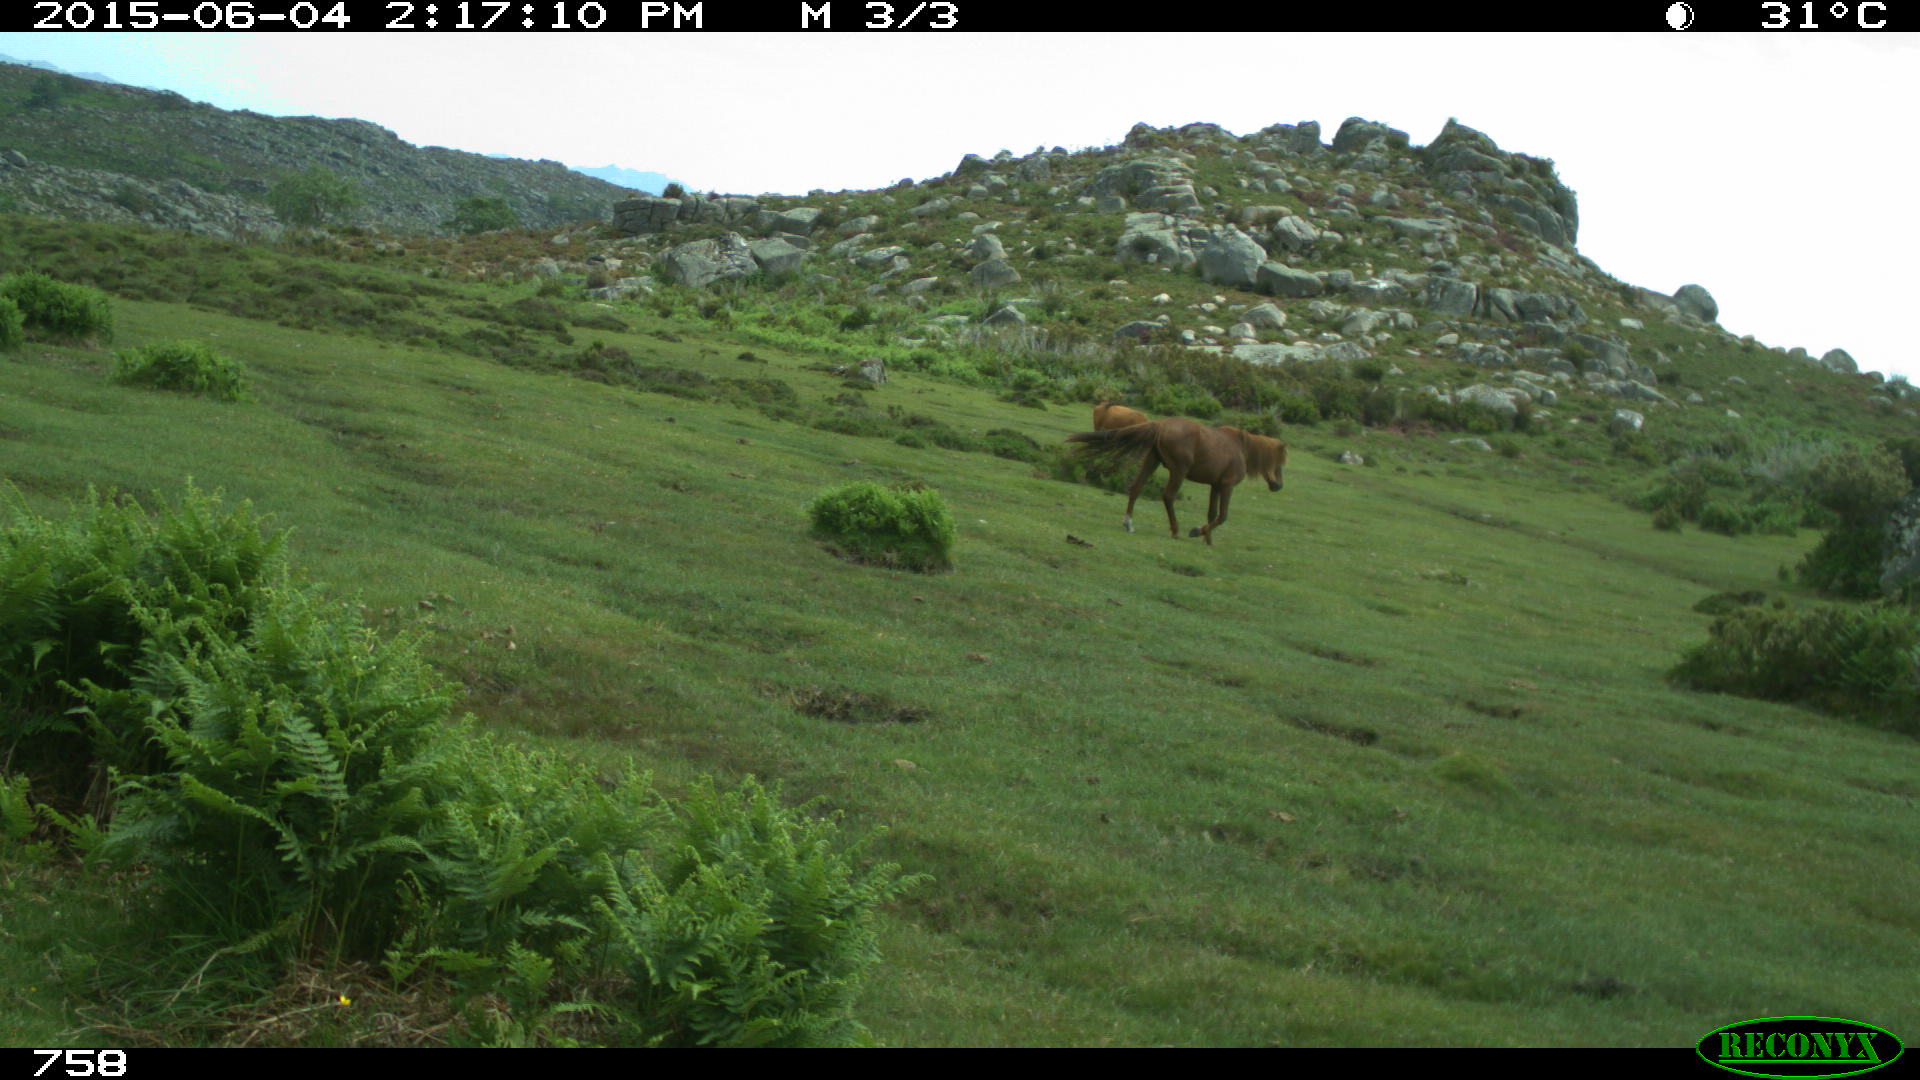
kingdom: Animalia
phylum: Chordata
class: Mammalia
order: Perissodactyla
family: Equidae
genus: Equus
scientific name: Equus caballus
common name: Horse
